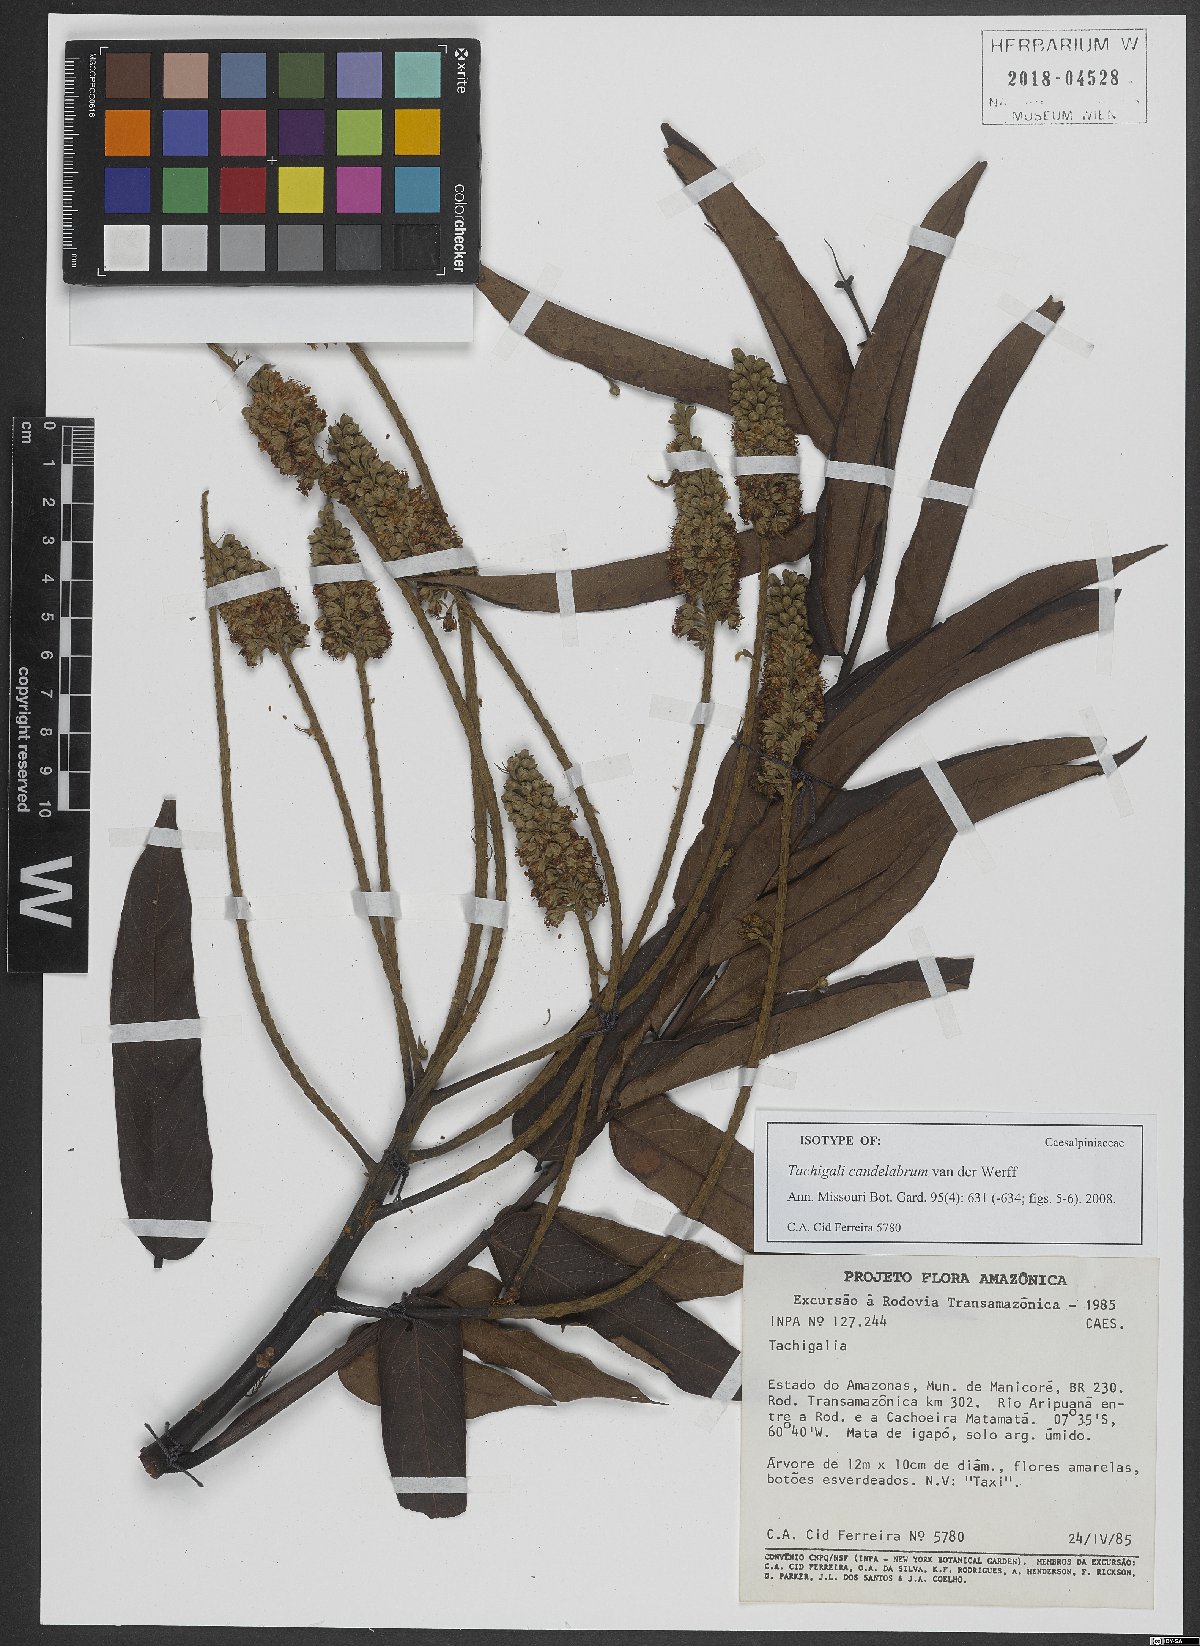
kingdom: Plantae
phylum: Tracheophyta
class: Magnoliopsida
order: Fabales
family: Fabaceae
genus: Tachigali
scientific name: Tachigali candelabrum
